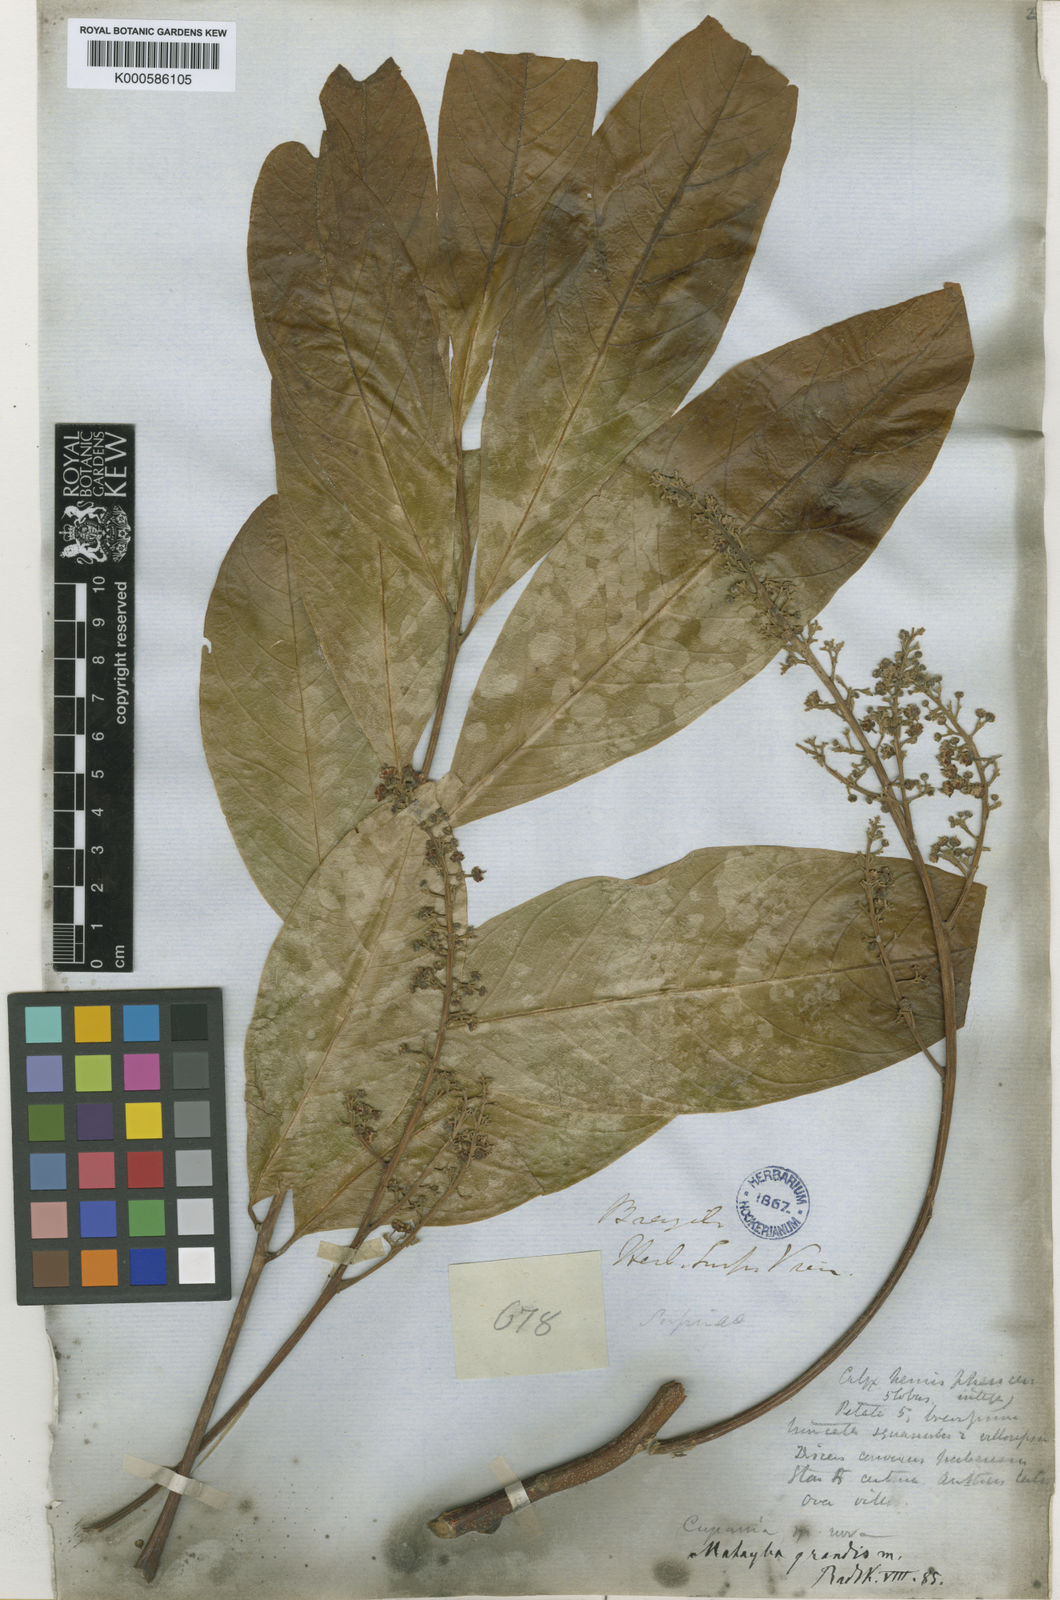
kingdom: Plantae
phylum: Tracheophyta
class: Magnoliopsida
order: Sapindales
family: Sapindaceae
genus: Matayba
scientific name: Matayba grandis
